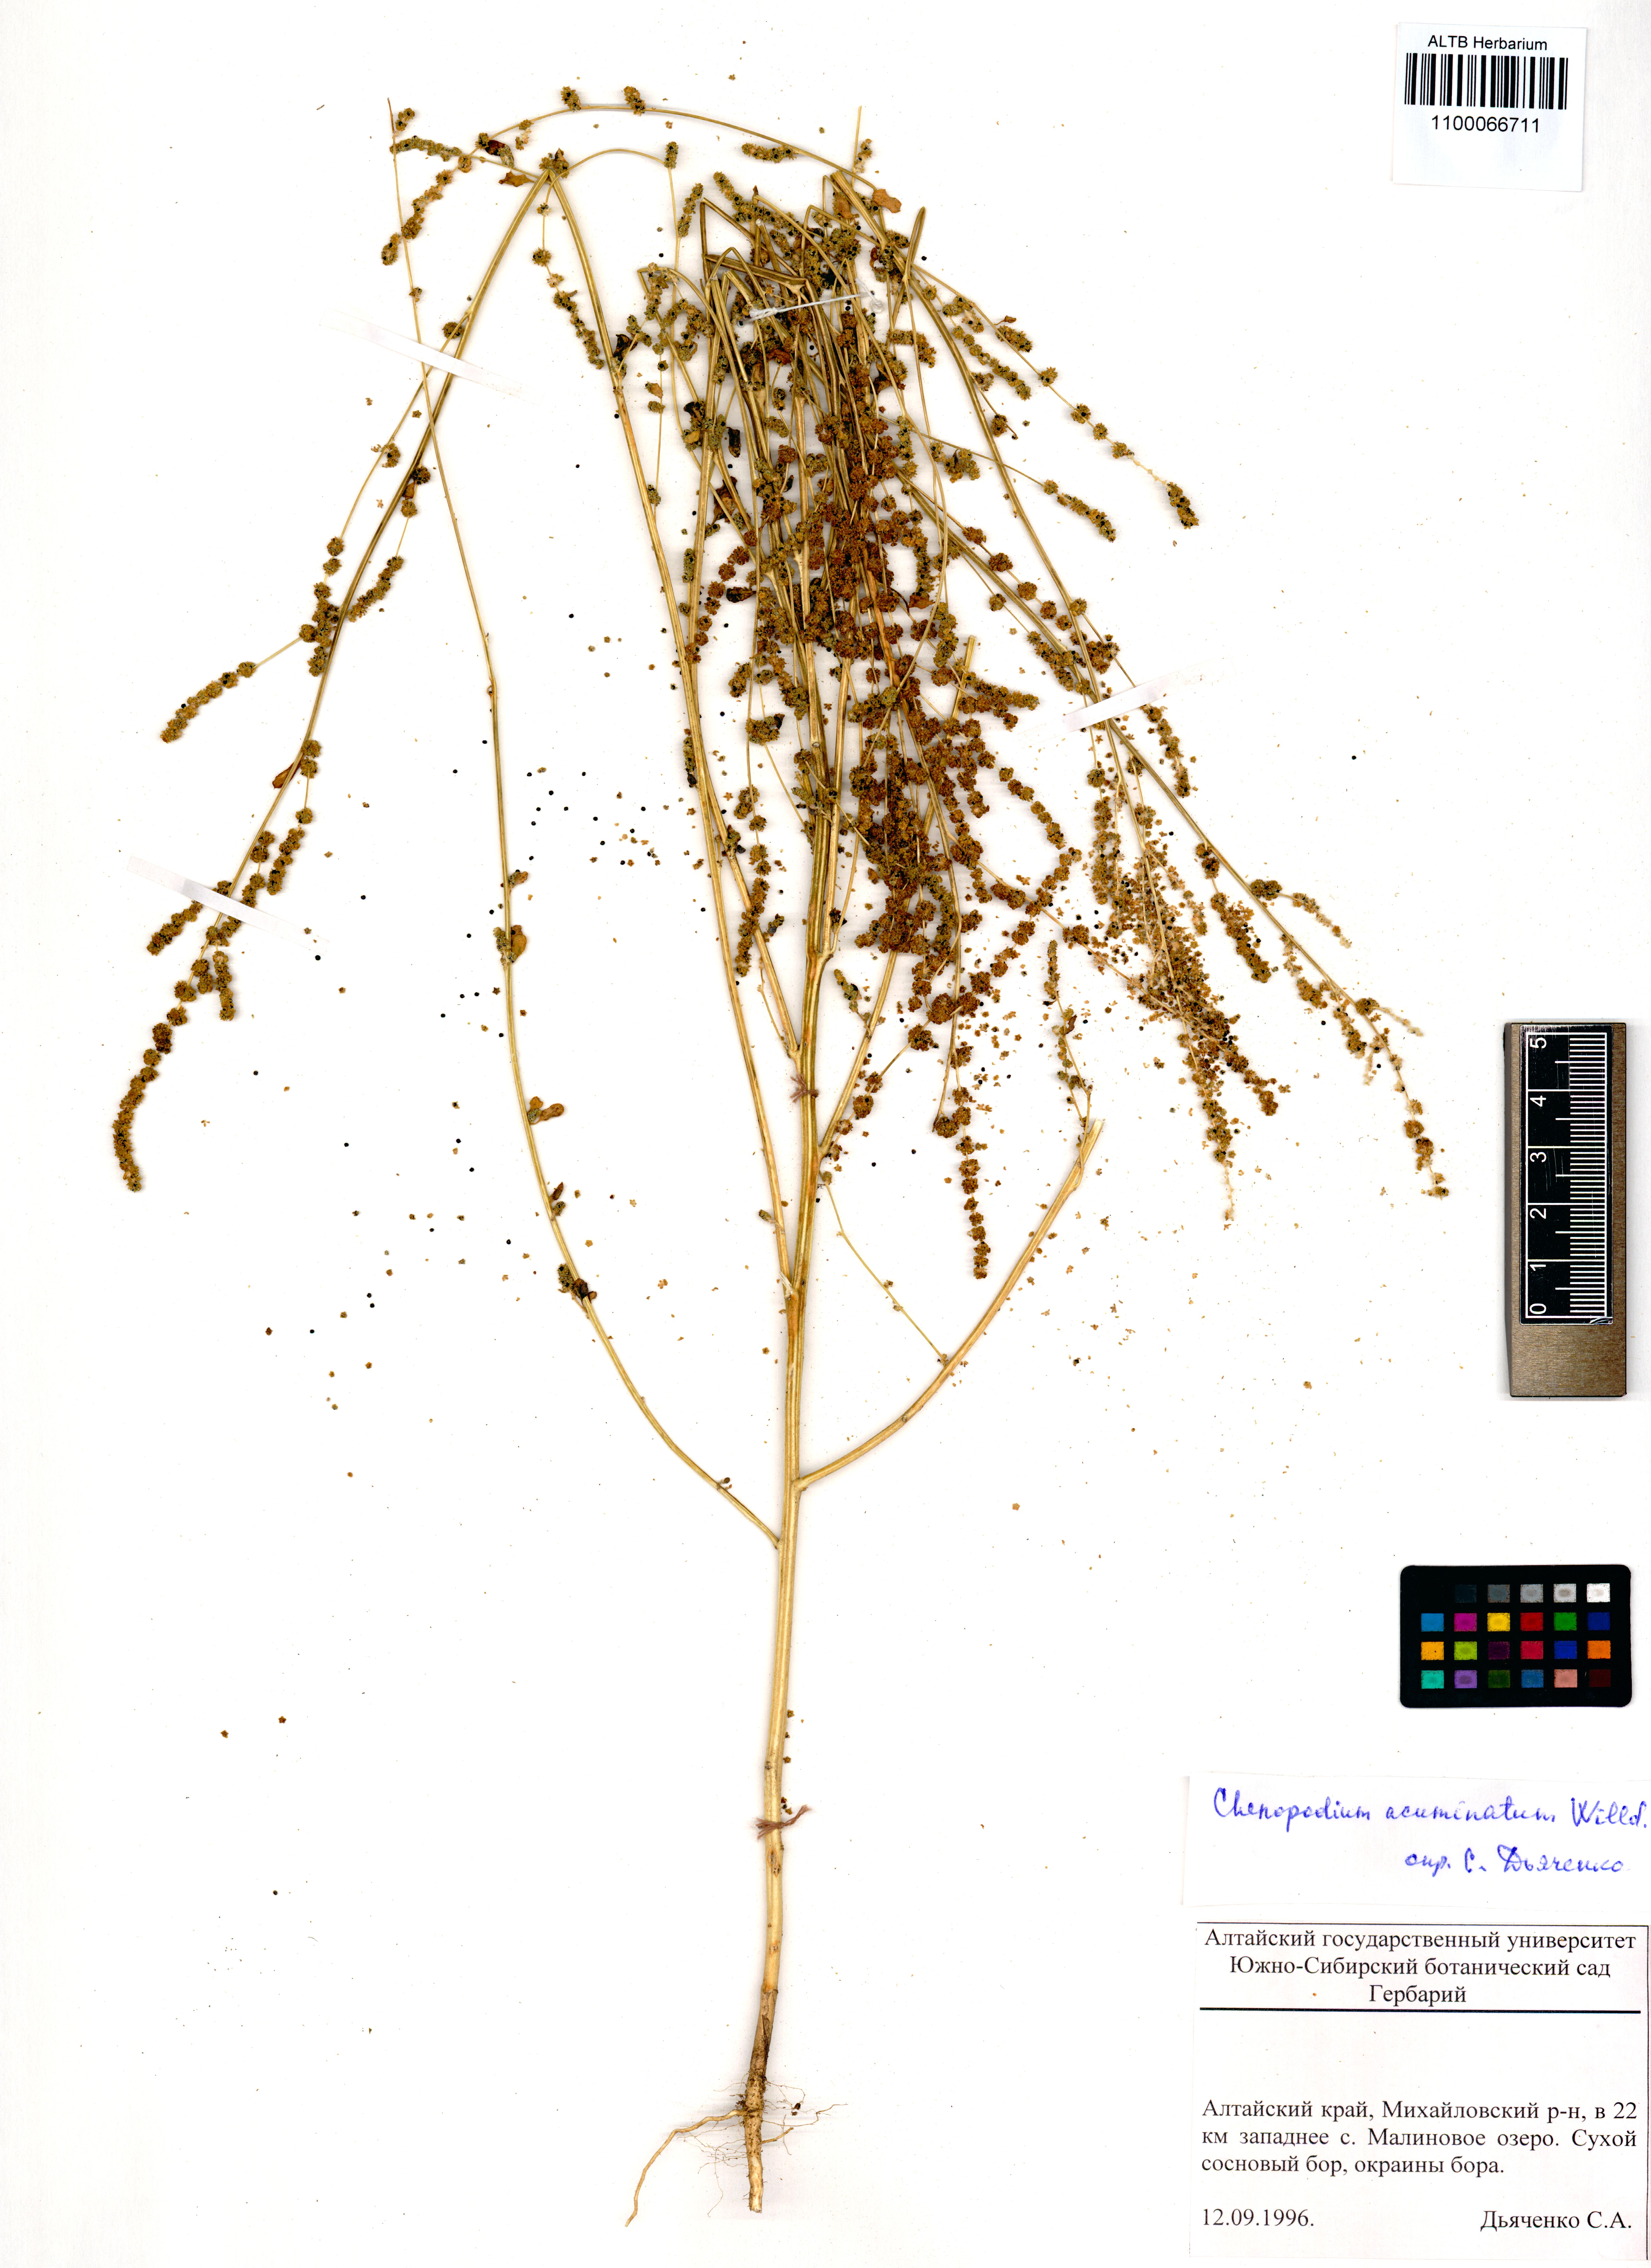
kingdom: Plantae
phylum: Tracheophyta
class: Magnoliopsida
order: Caryophyllales
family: Amaranthaceae
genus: Chenopodium
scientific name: Chenopodium acuminatum
